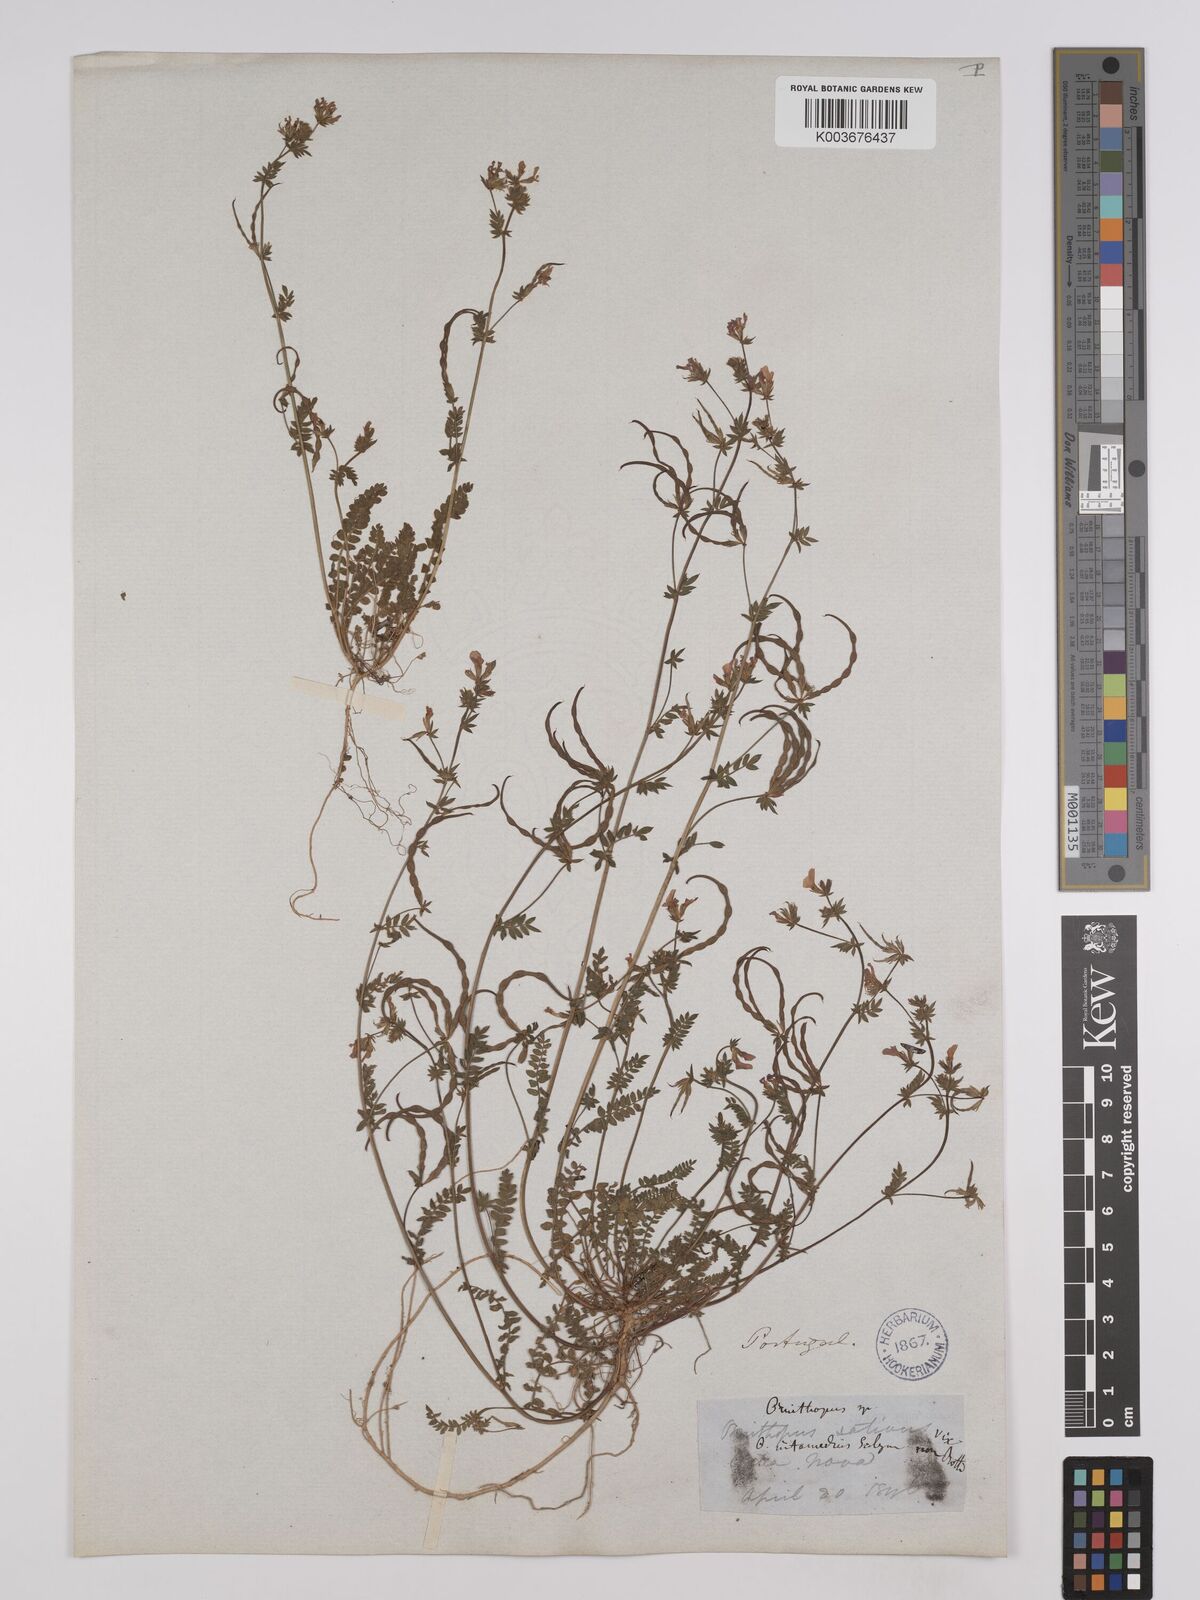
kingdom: Plantae
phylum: Tracheophyta
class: Magnoliopsida
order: Fabales
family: Fabaceae
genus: Ornithopus
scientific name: Ornithopus sativus
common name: Serradella
